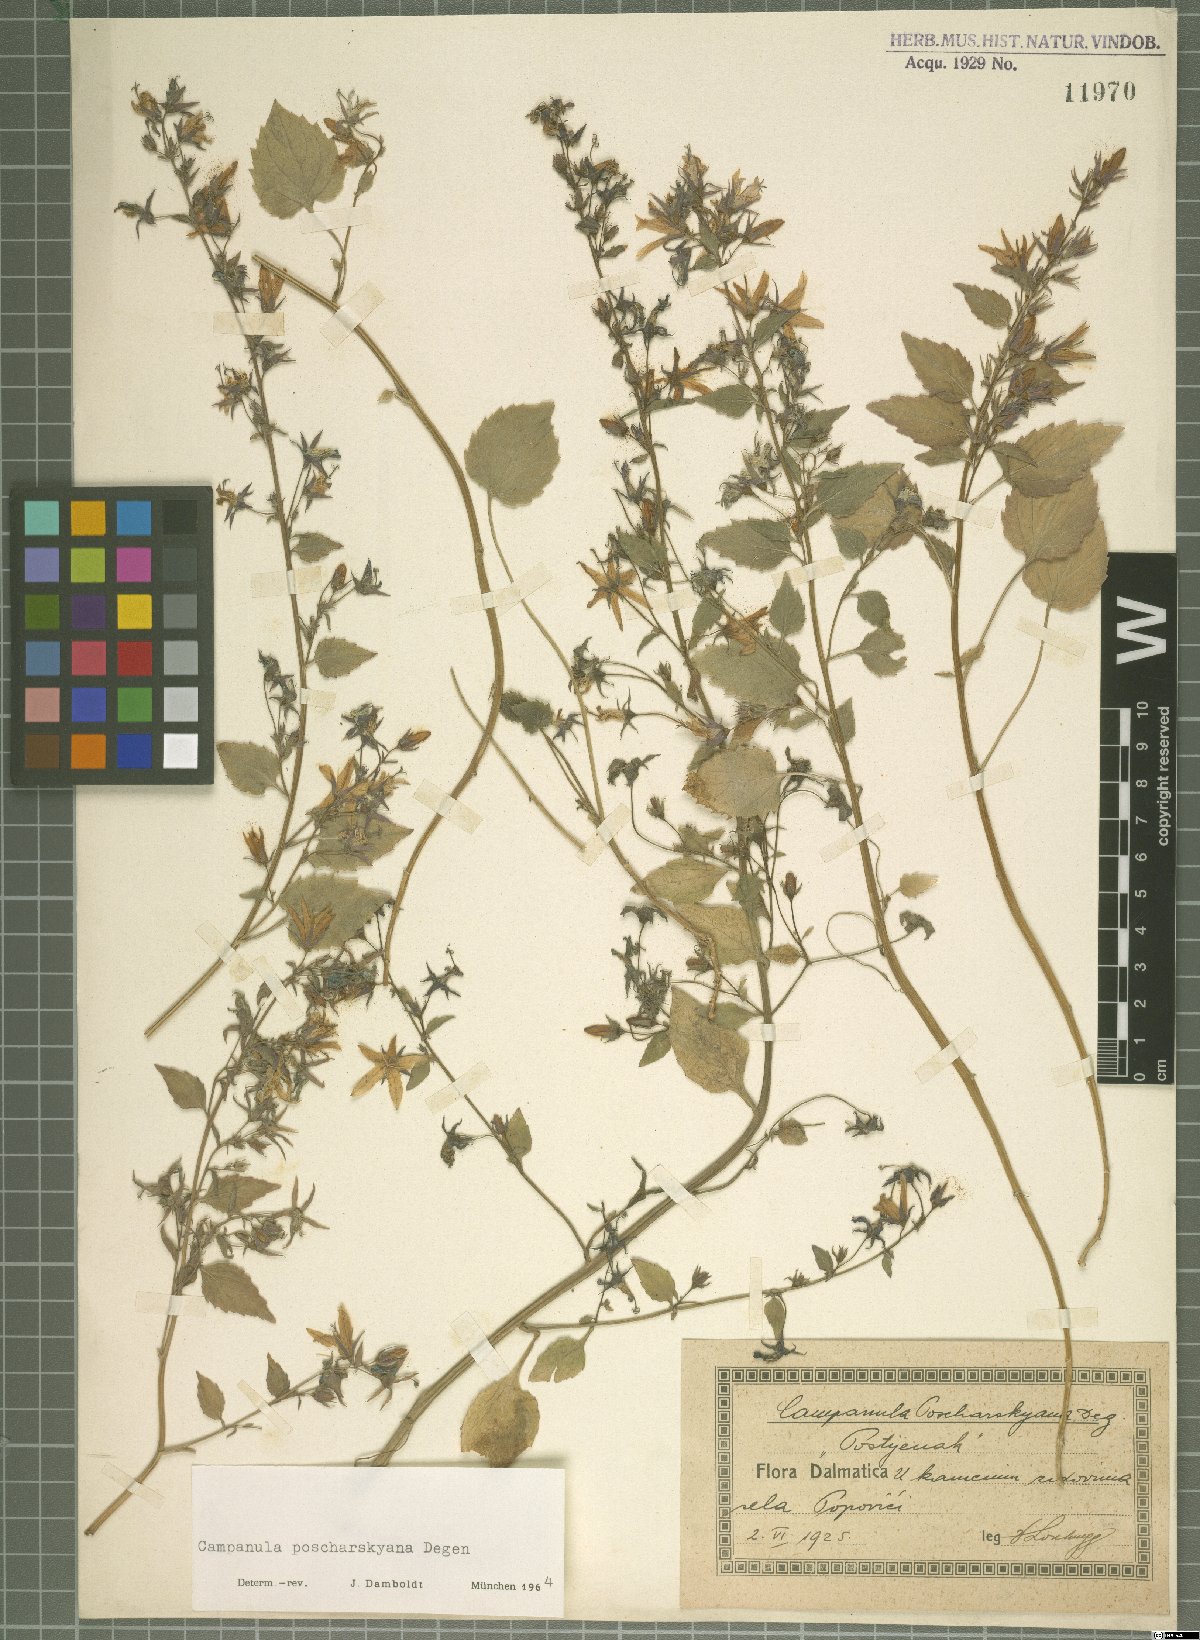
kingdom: Plantae
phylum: Tracheophyta
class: Magnoliopsida
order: Asterales
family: Campanulaceae
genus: Campanula
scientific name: Campanula poscharskyana
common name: Trailing bellflower
